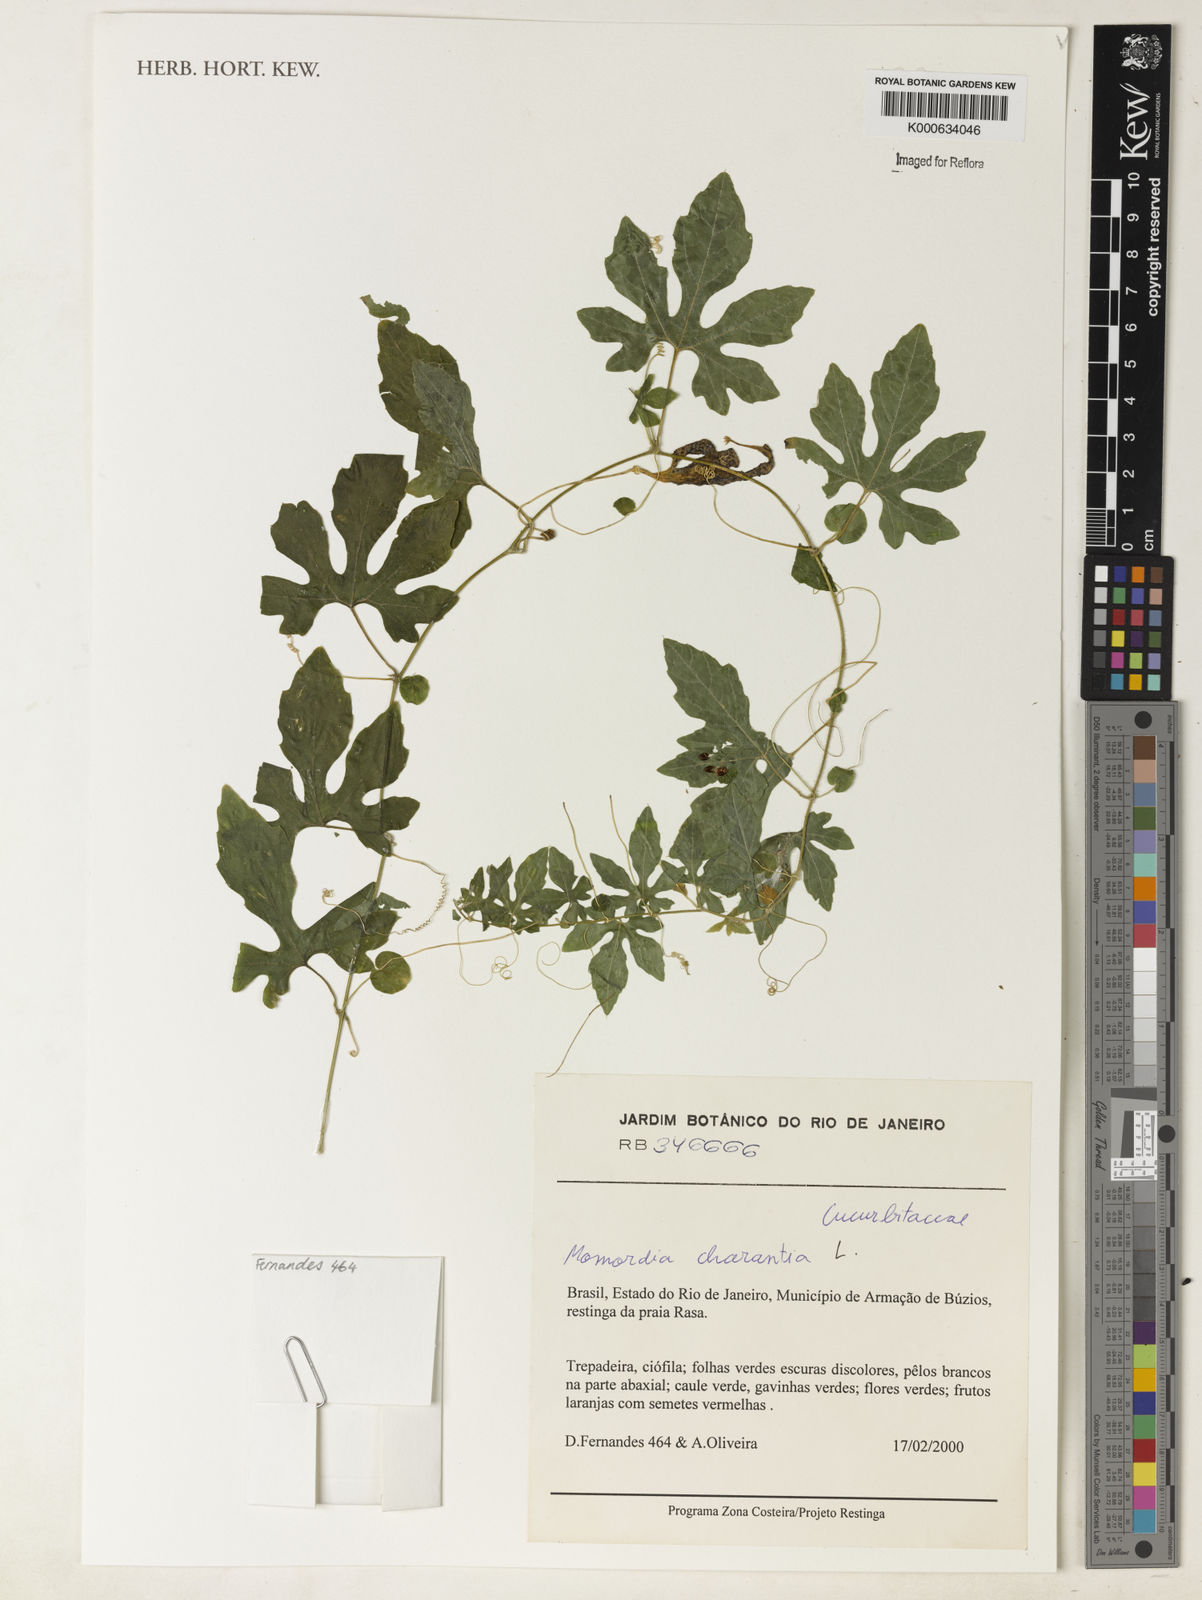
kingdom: Plantae
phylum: Tracheophyta
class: Magnoliopsida
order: Cucurbitales
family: Cucurbitaceae
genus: Momordica
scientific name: Momordica charantia
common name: Balsampear
